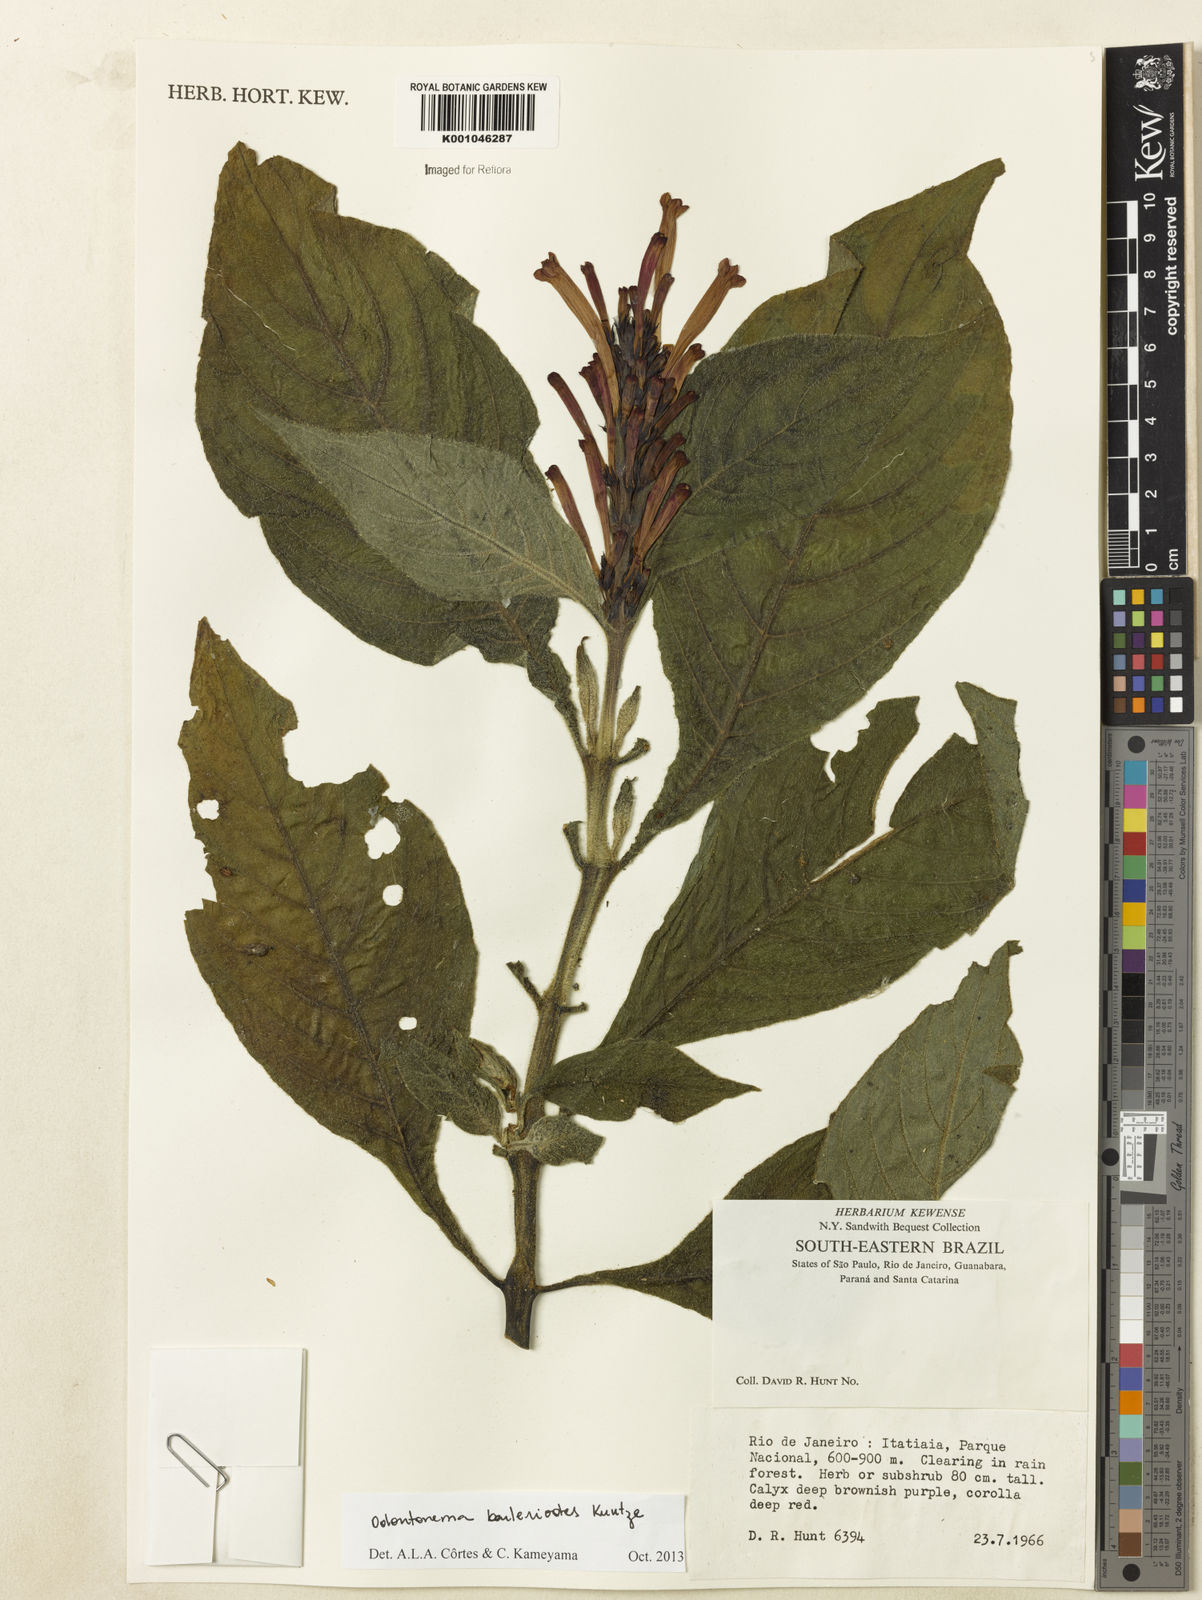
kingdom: Plantae
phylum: Tracheophyta
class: Magnoliopsida
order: Lamiales
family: Acanthaceae
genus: Odontonema
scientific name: Odontonema
